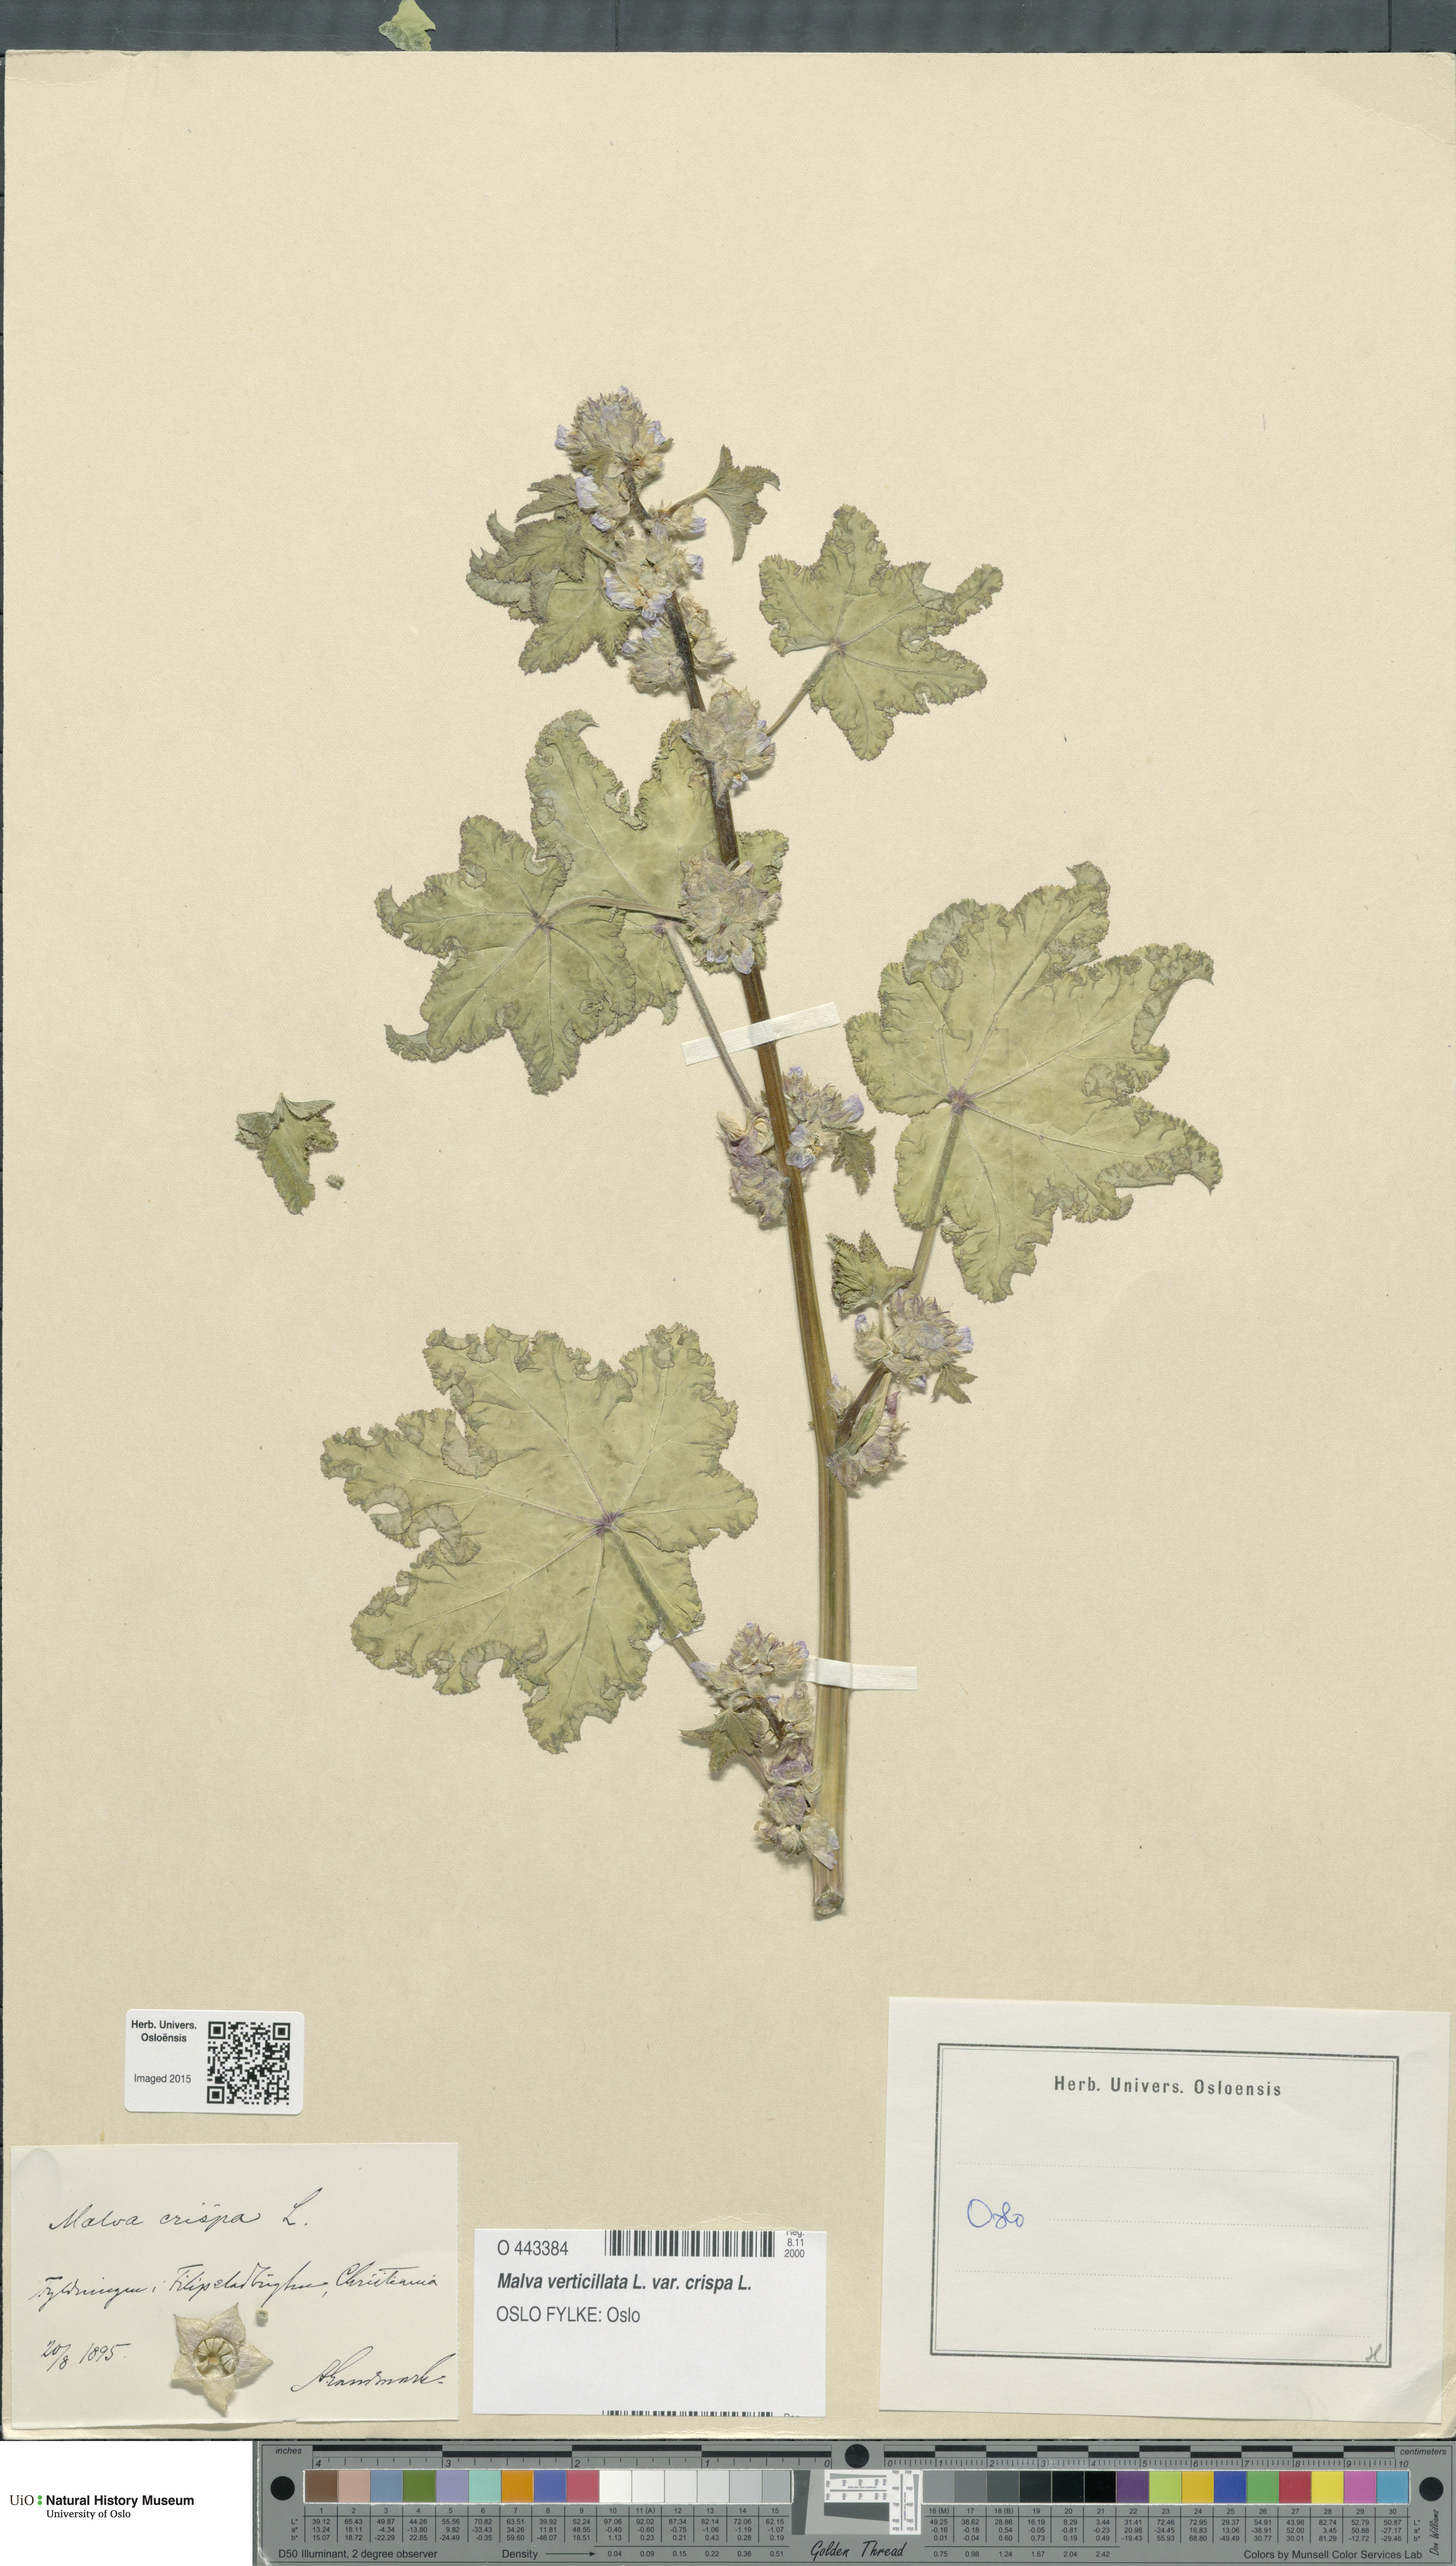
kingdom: Plantae
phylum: Tracheophyta
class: Magnoliopsida
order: Malvales
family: Malvaceae
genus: Malva
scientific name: Malva verticillata
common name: Chinese mallow
